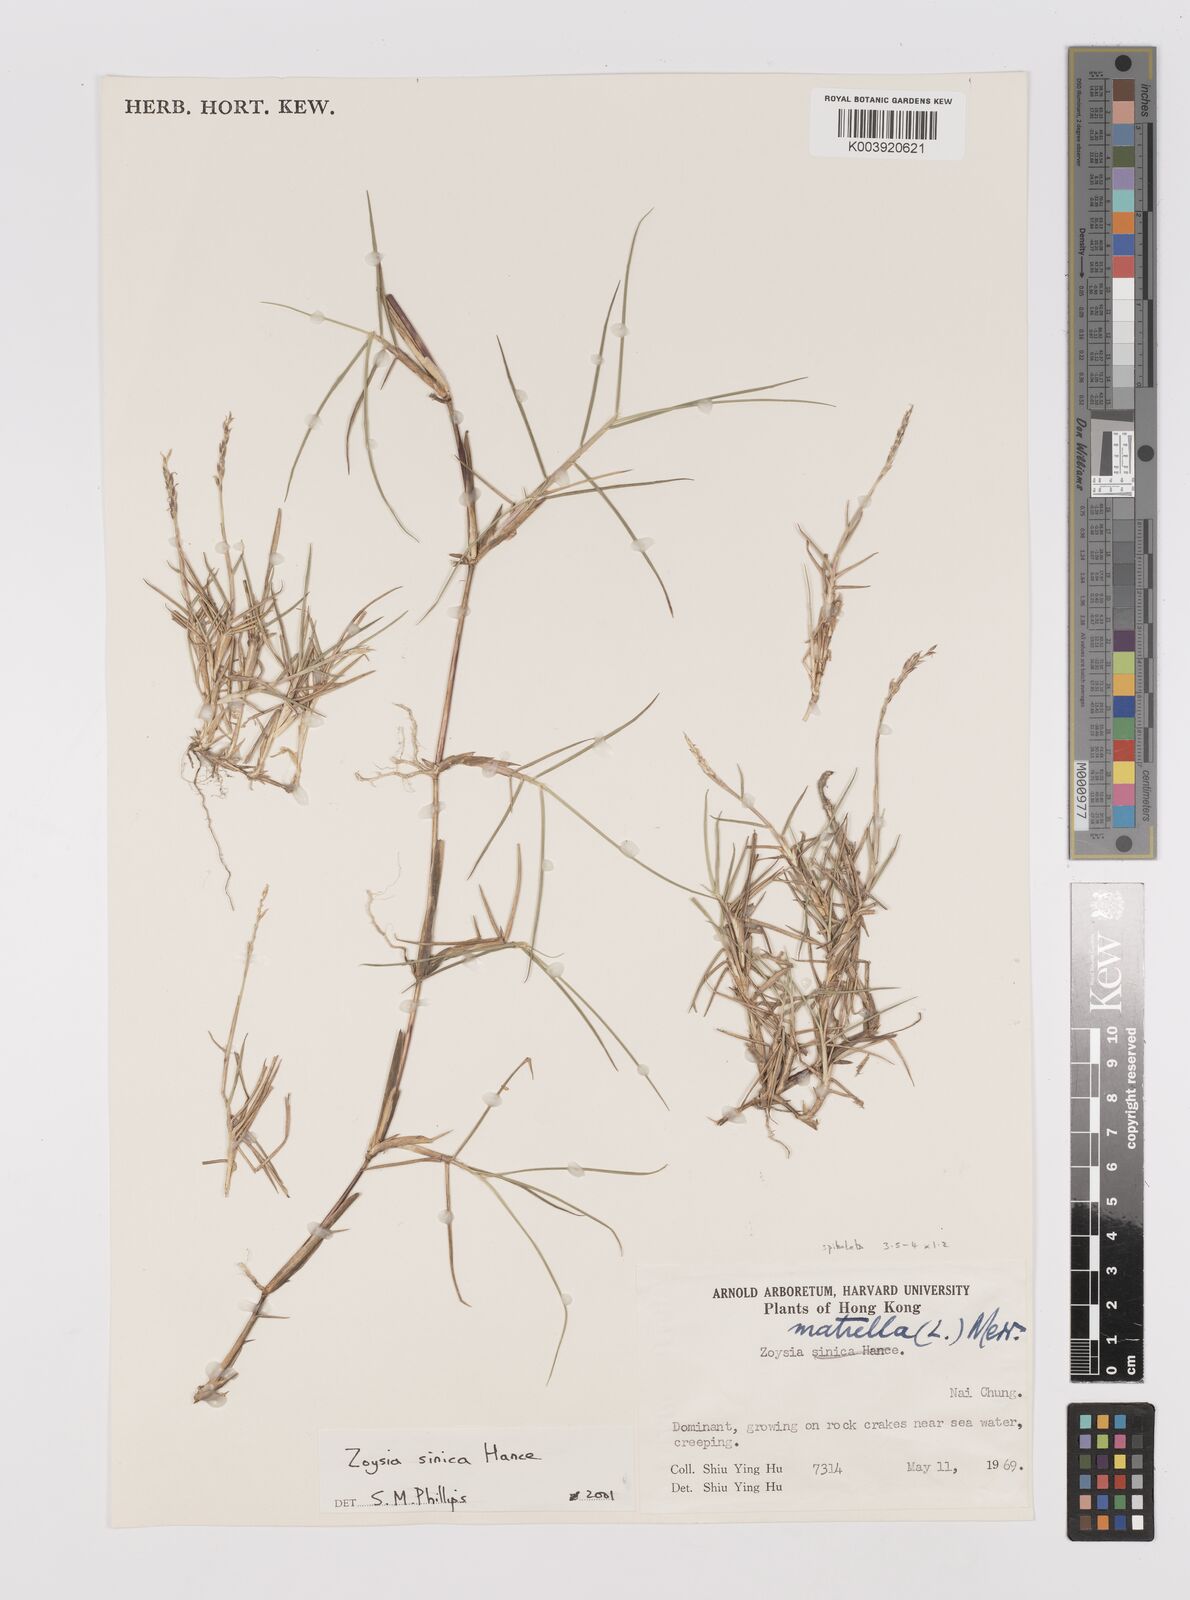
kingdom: Plantae
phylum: Tracheophyta
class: Liliopsida
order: Poales
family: Poaceae
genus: Zoysia
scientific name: Zoysia sinica
